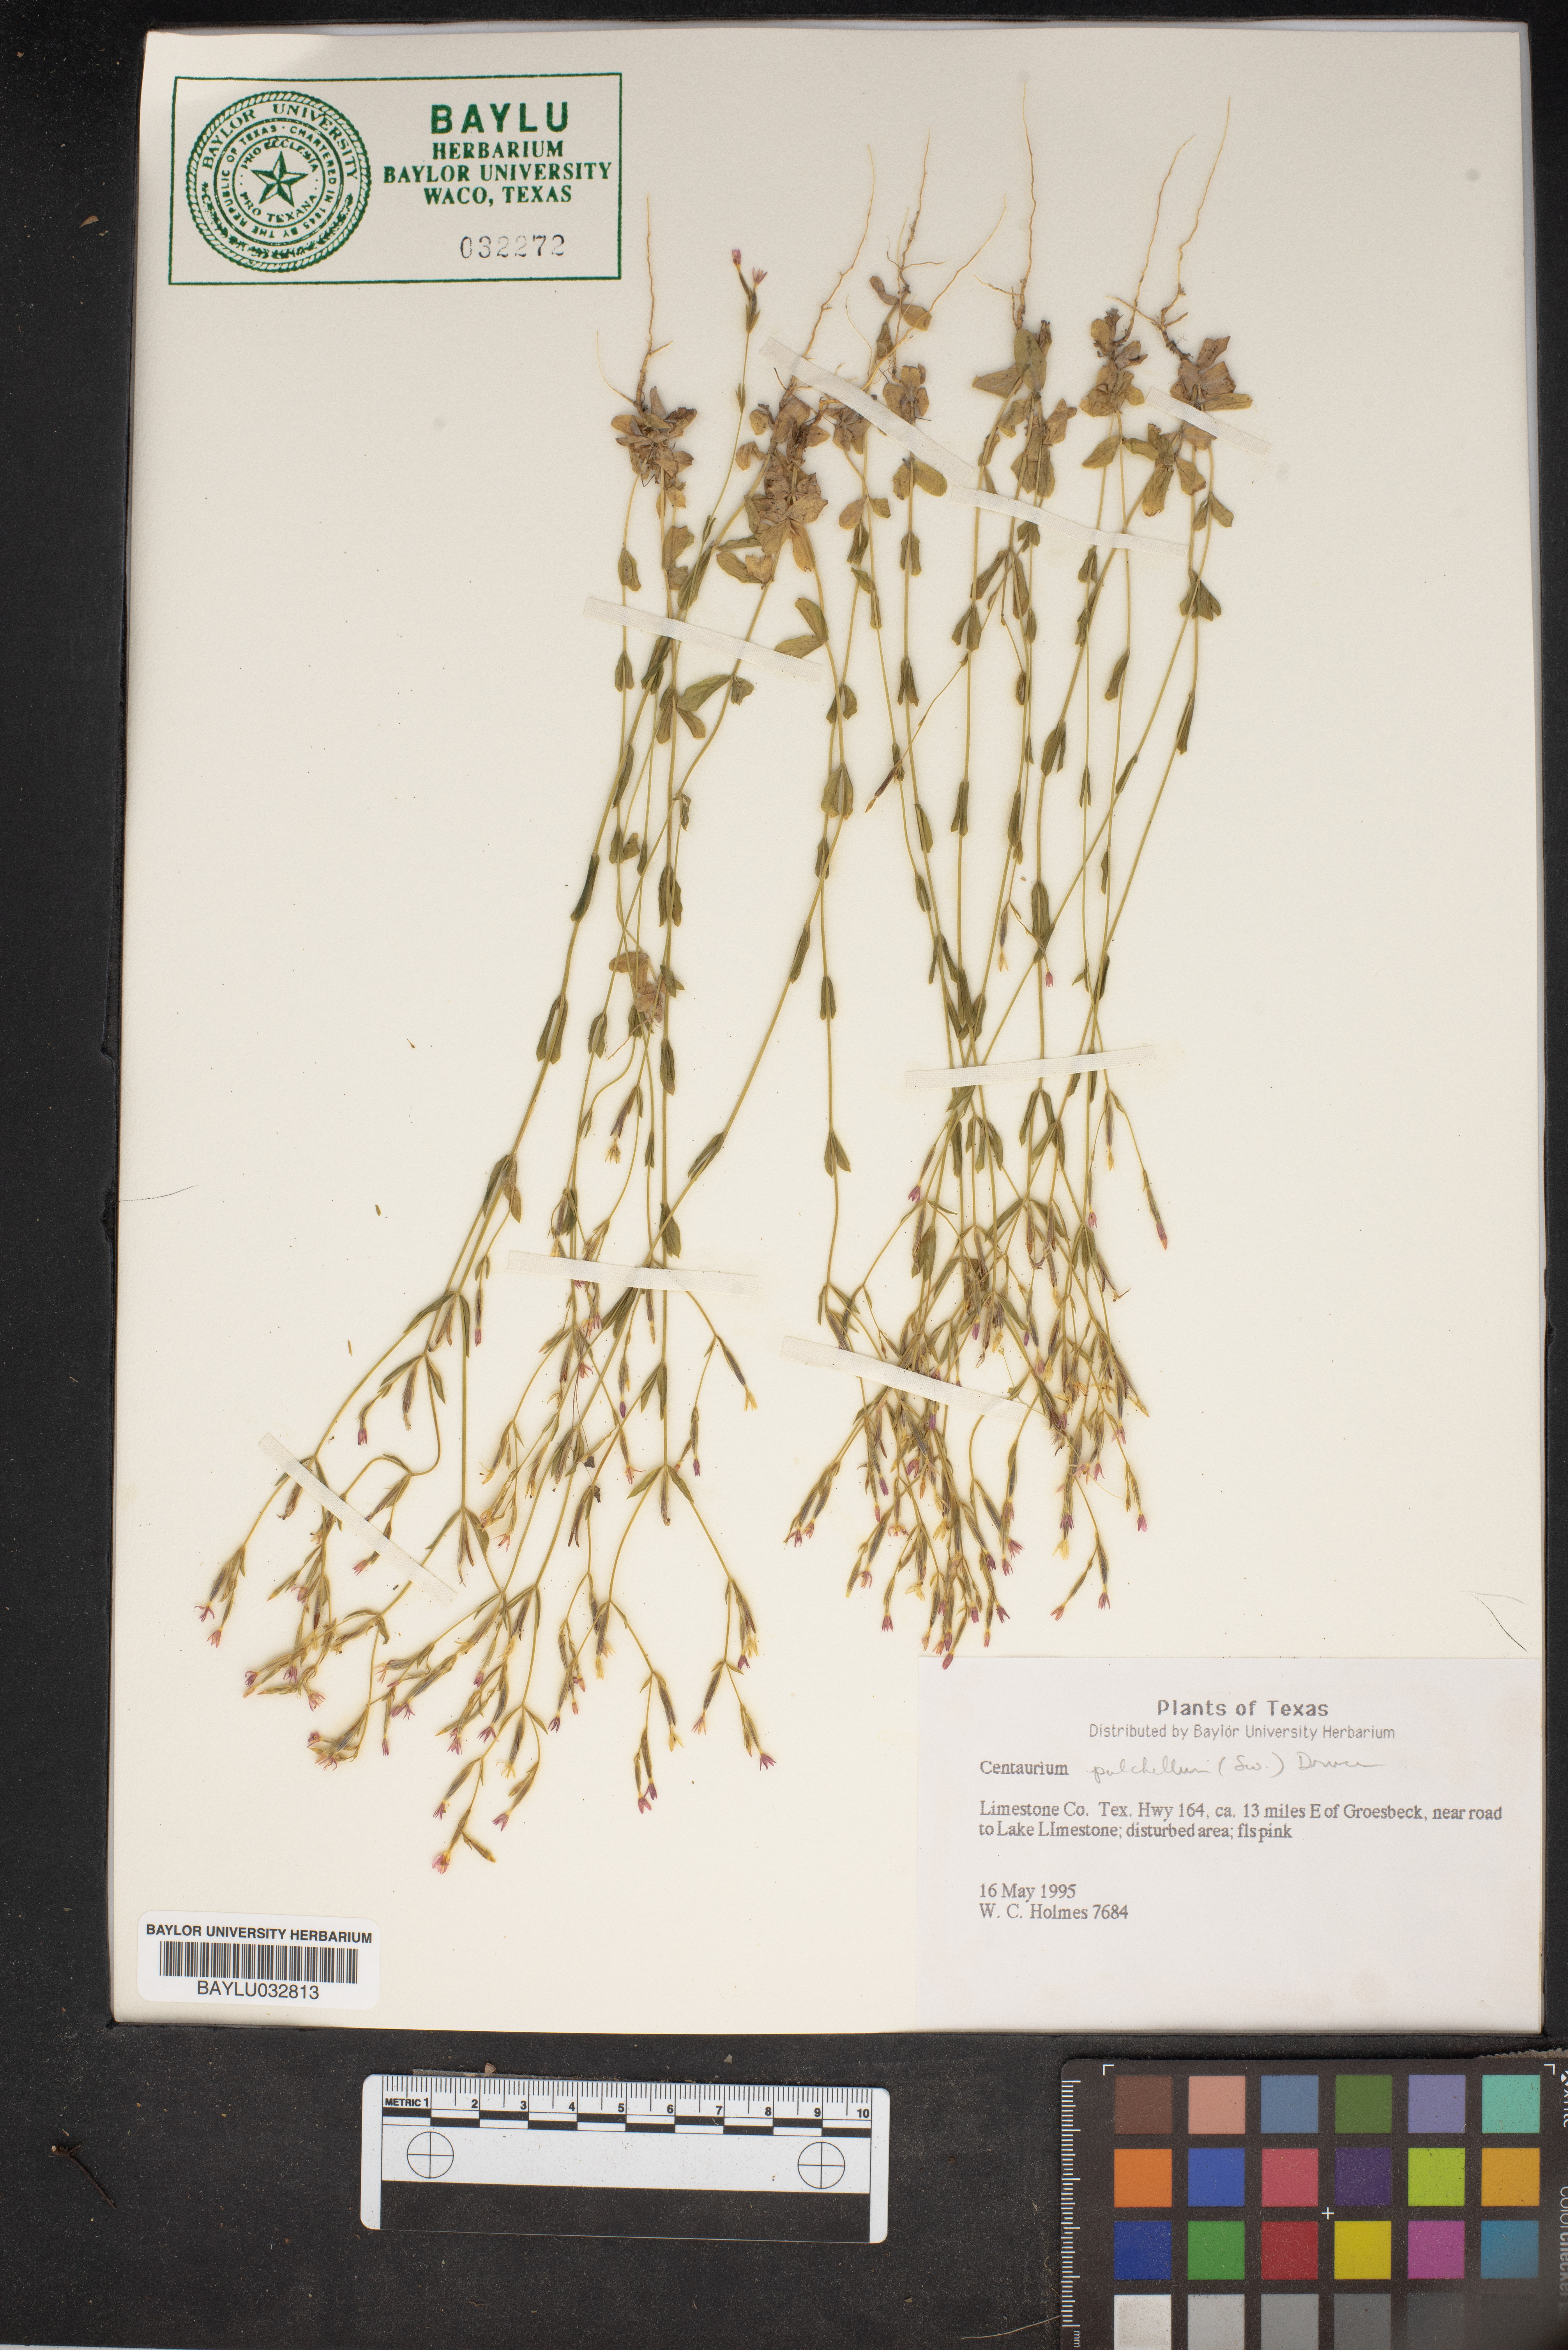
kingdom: Plantae
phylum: Tracheophyta
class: Magnoliopsida
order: Gentianales
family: Gentianaceae
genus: Centaurium
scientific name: Centaurium pulchellum
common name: Lesser centaury
